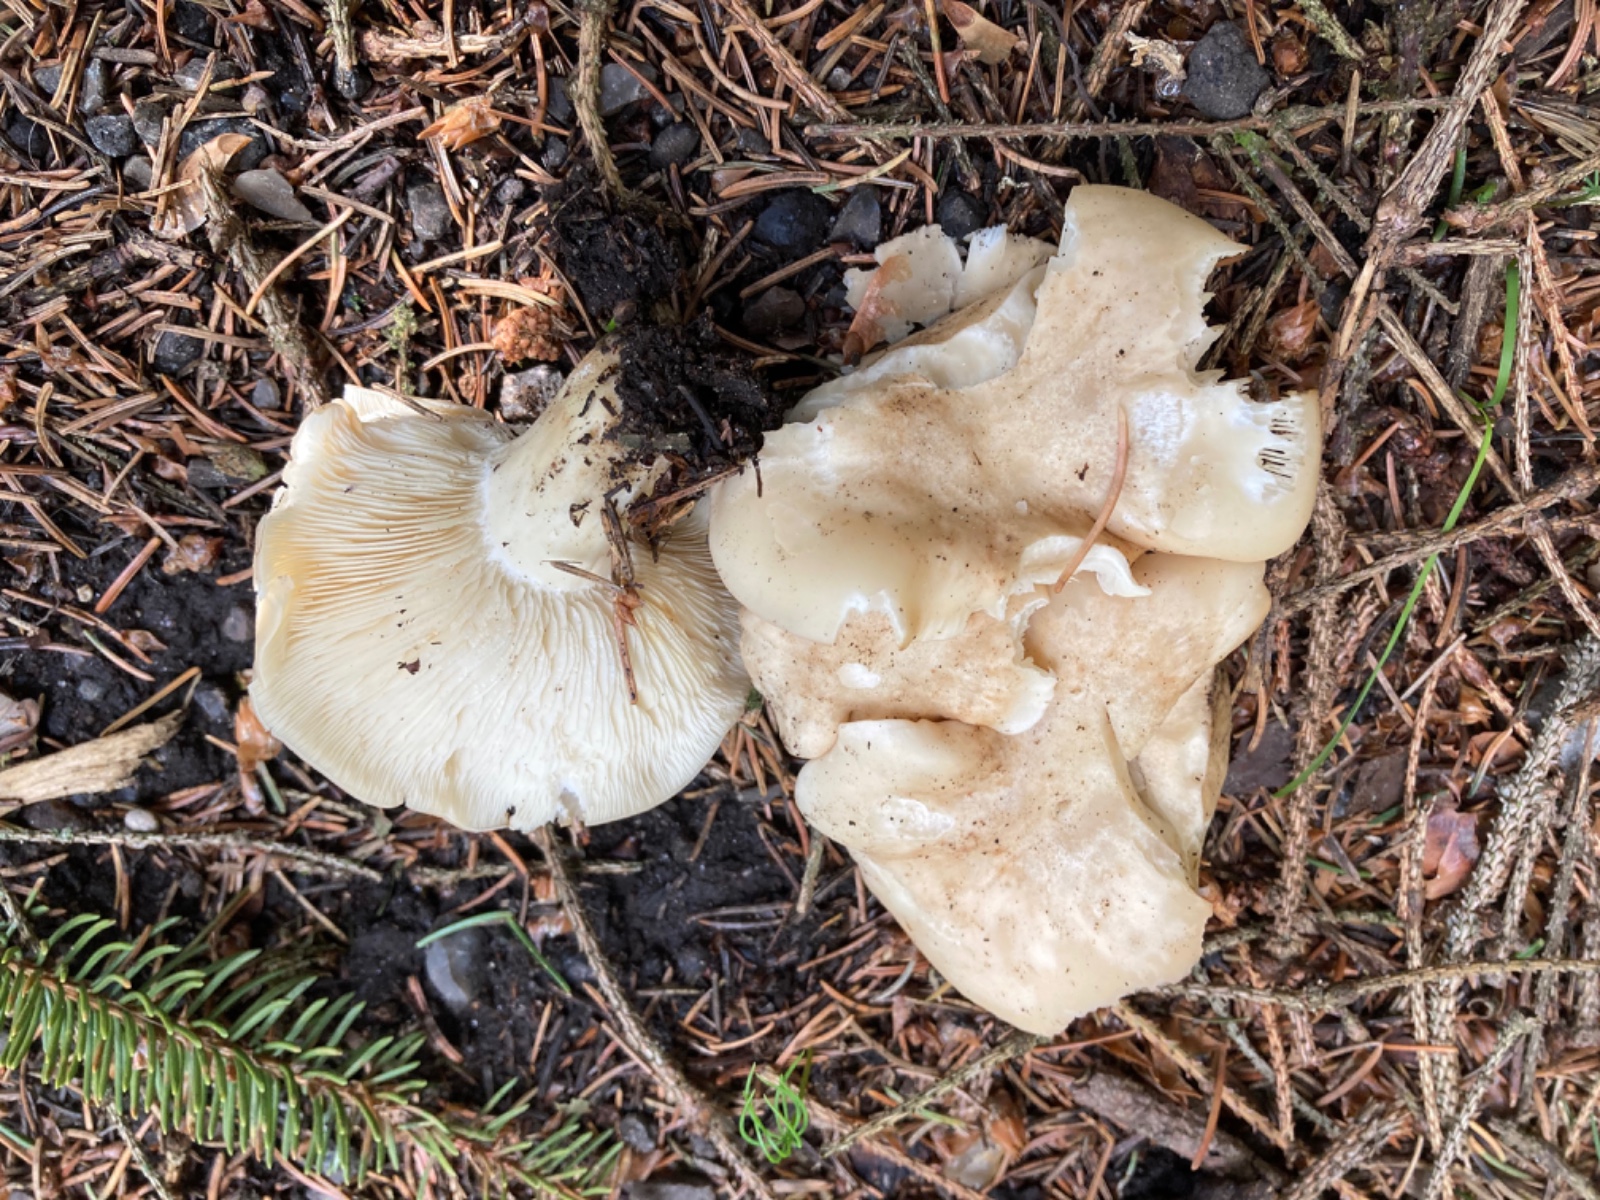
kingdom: Fungi
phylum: Basidiomycota
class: Agaricomycetes
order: Agaricales
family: Lyophyllaceae
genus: Calocybe
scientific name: Calocybe gambosa
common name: vårmusseron
